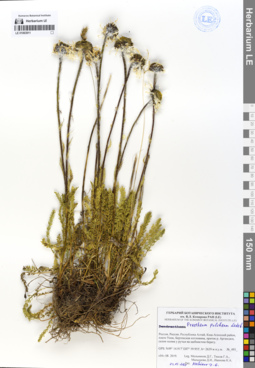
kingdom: Plantae
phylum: Tracheophyta
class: Magnoliopsida
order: Asterales
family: Asteraceae
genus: Tanacetum
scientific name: Tanacetum pulchrum
